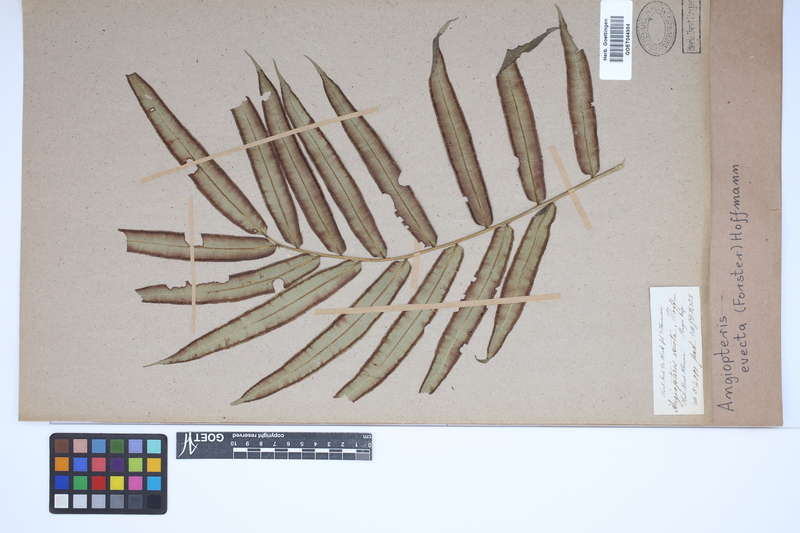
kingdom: Plantae
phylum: Tracheophyta
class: Polypodiopsida
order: Marattiales
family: Marattiaceae
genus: Angiopteris
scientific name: Angiopteris evecta
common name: Mule's-foot fern
